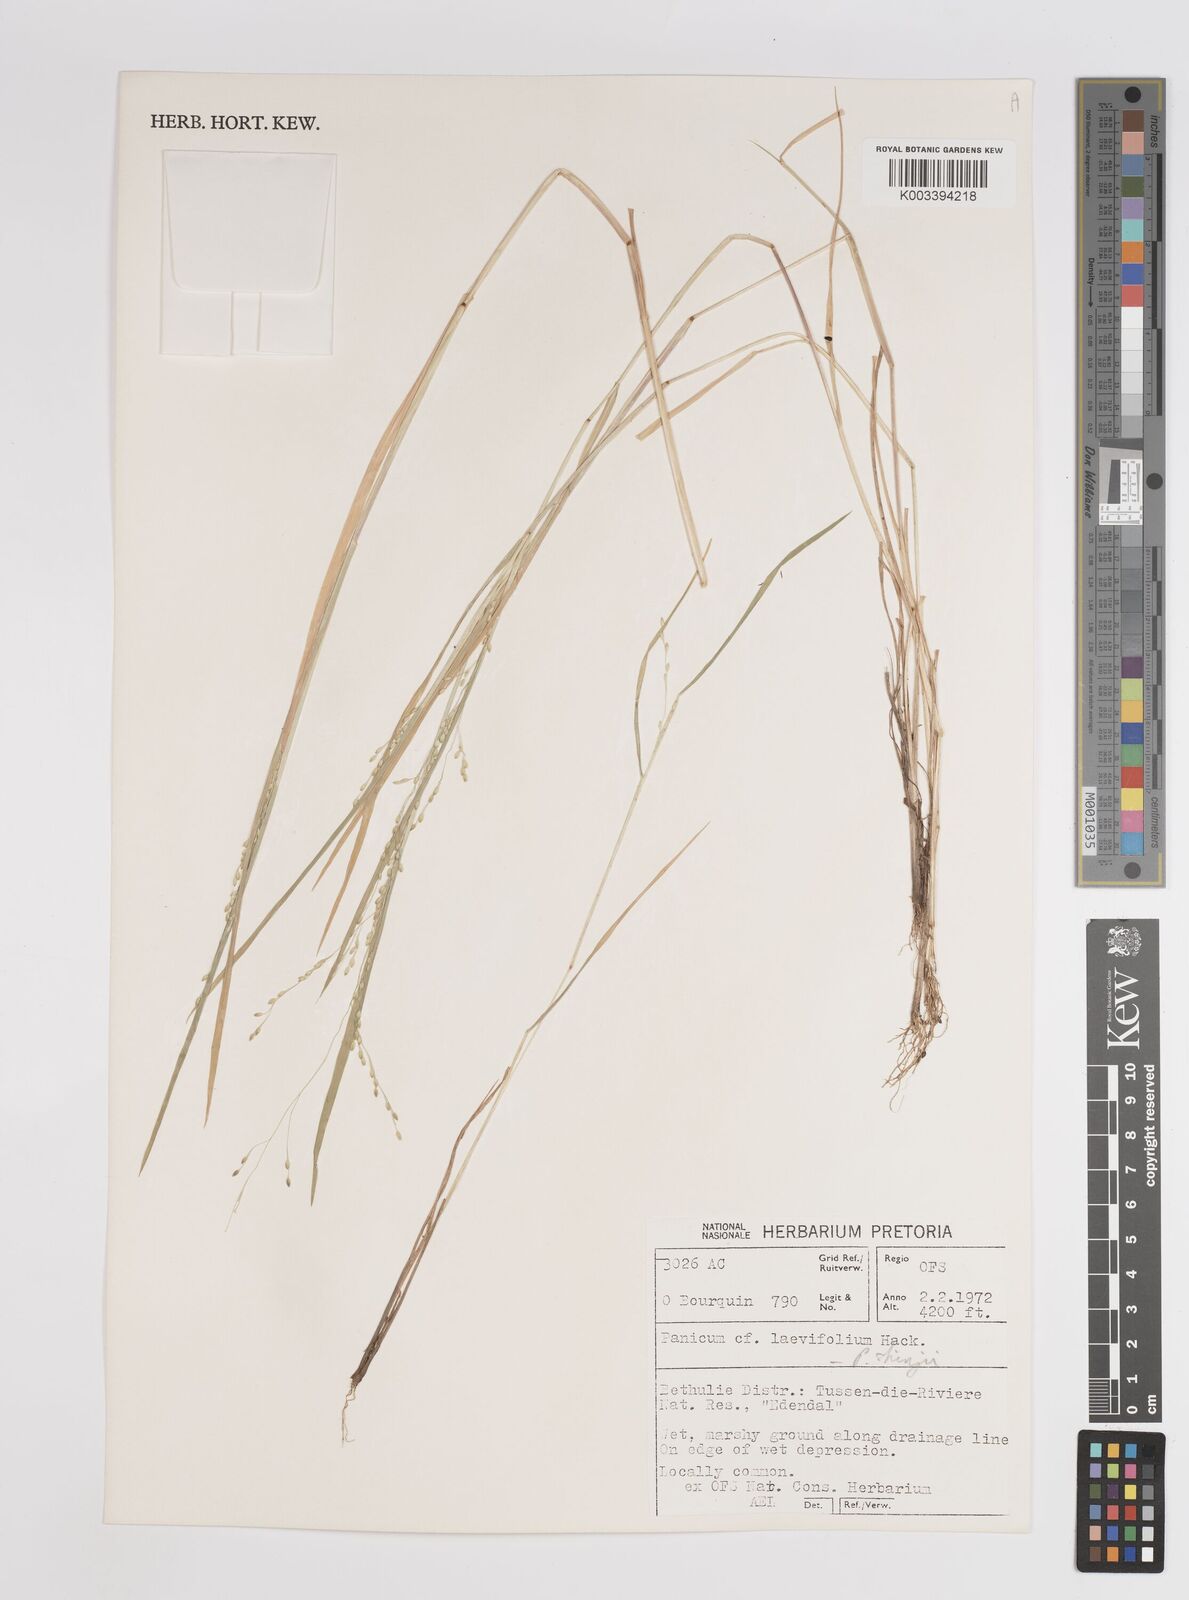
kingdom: Plantae
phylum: Tracheophyta
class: Liliopsida
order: Poales
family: Poaceae
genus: Panicum
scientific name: Panicum schinzii
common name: Sweet grass
